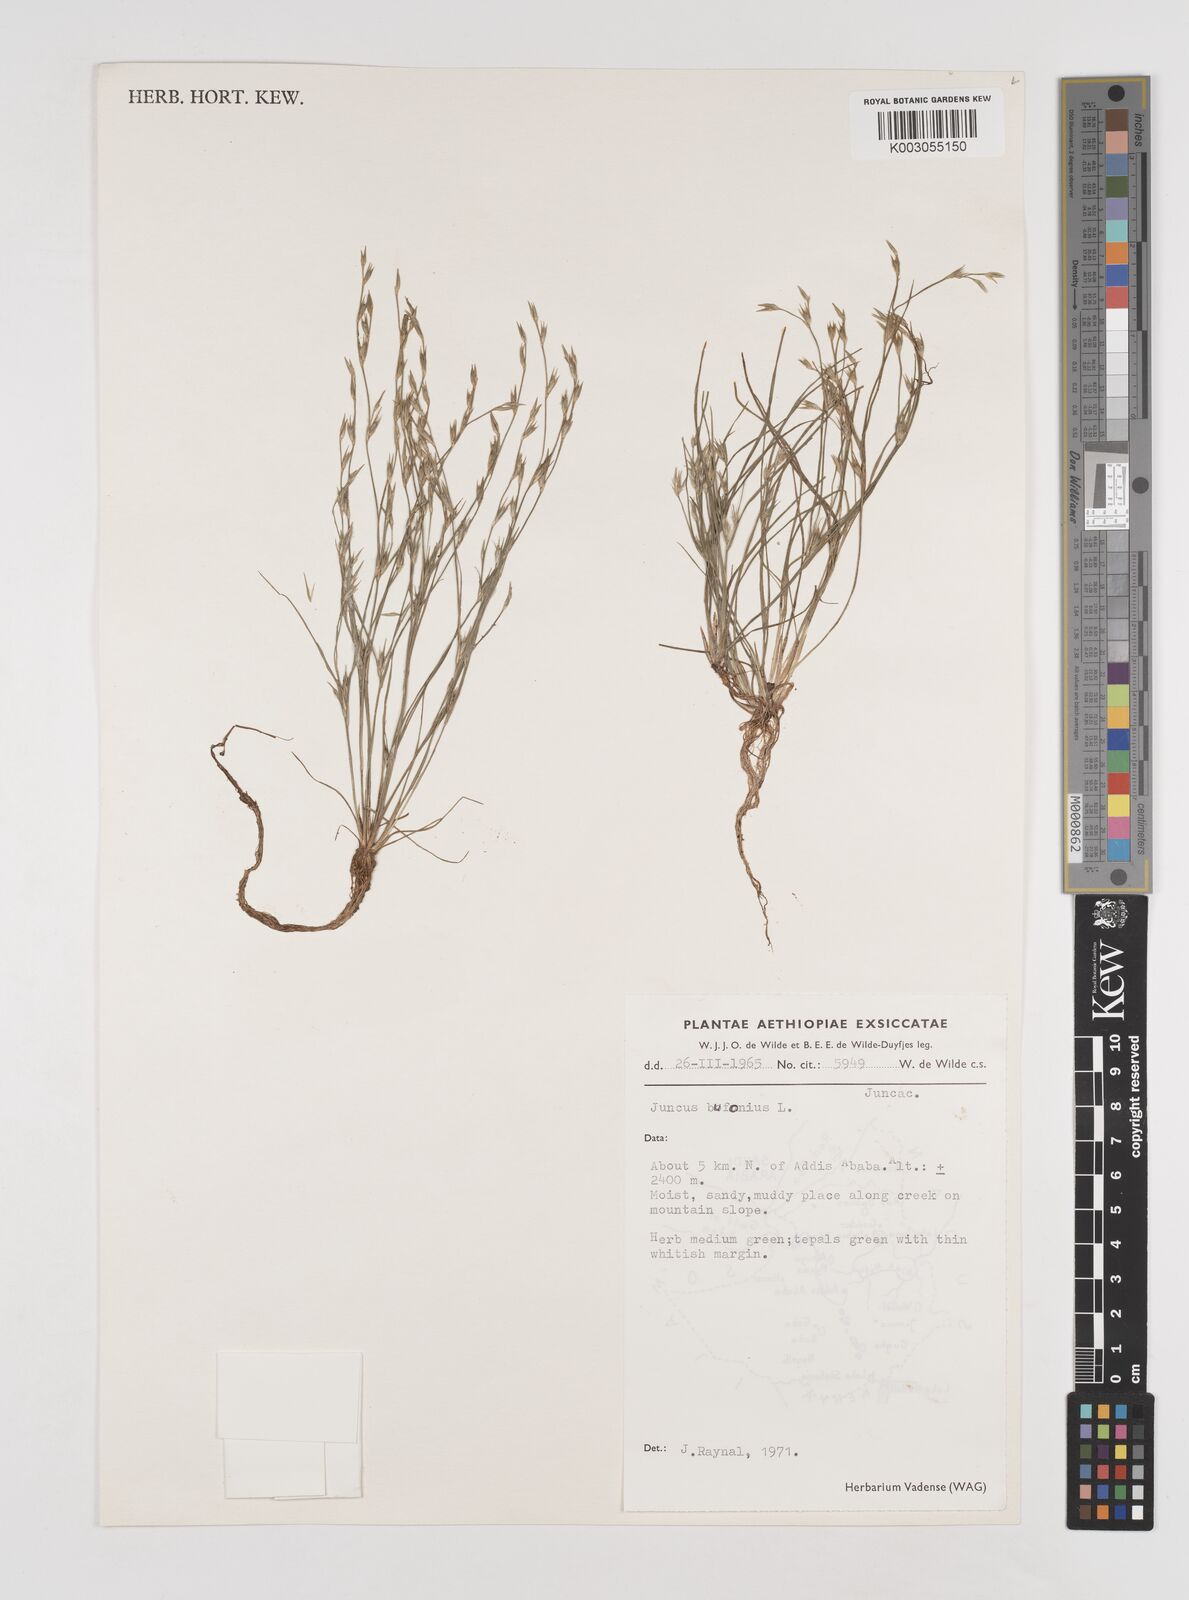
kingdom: Plantae
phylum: Tracheophyta
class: Liliopsida
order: Poales
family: Juncaceae
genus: Juncus
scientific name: Juncus bufonius
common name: Toad rush
